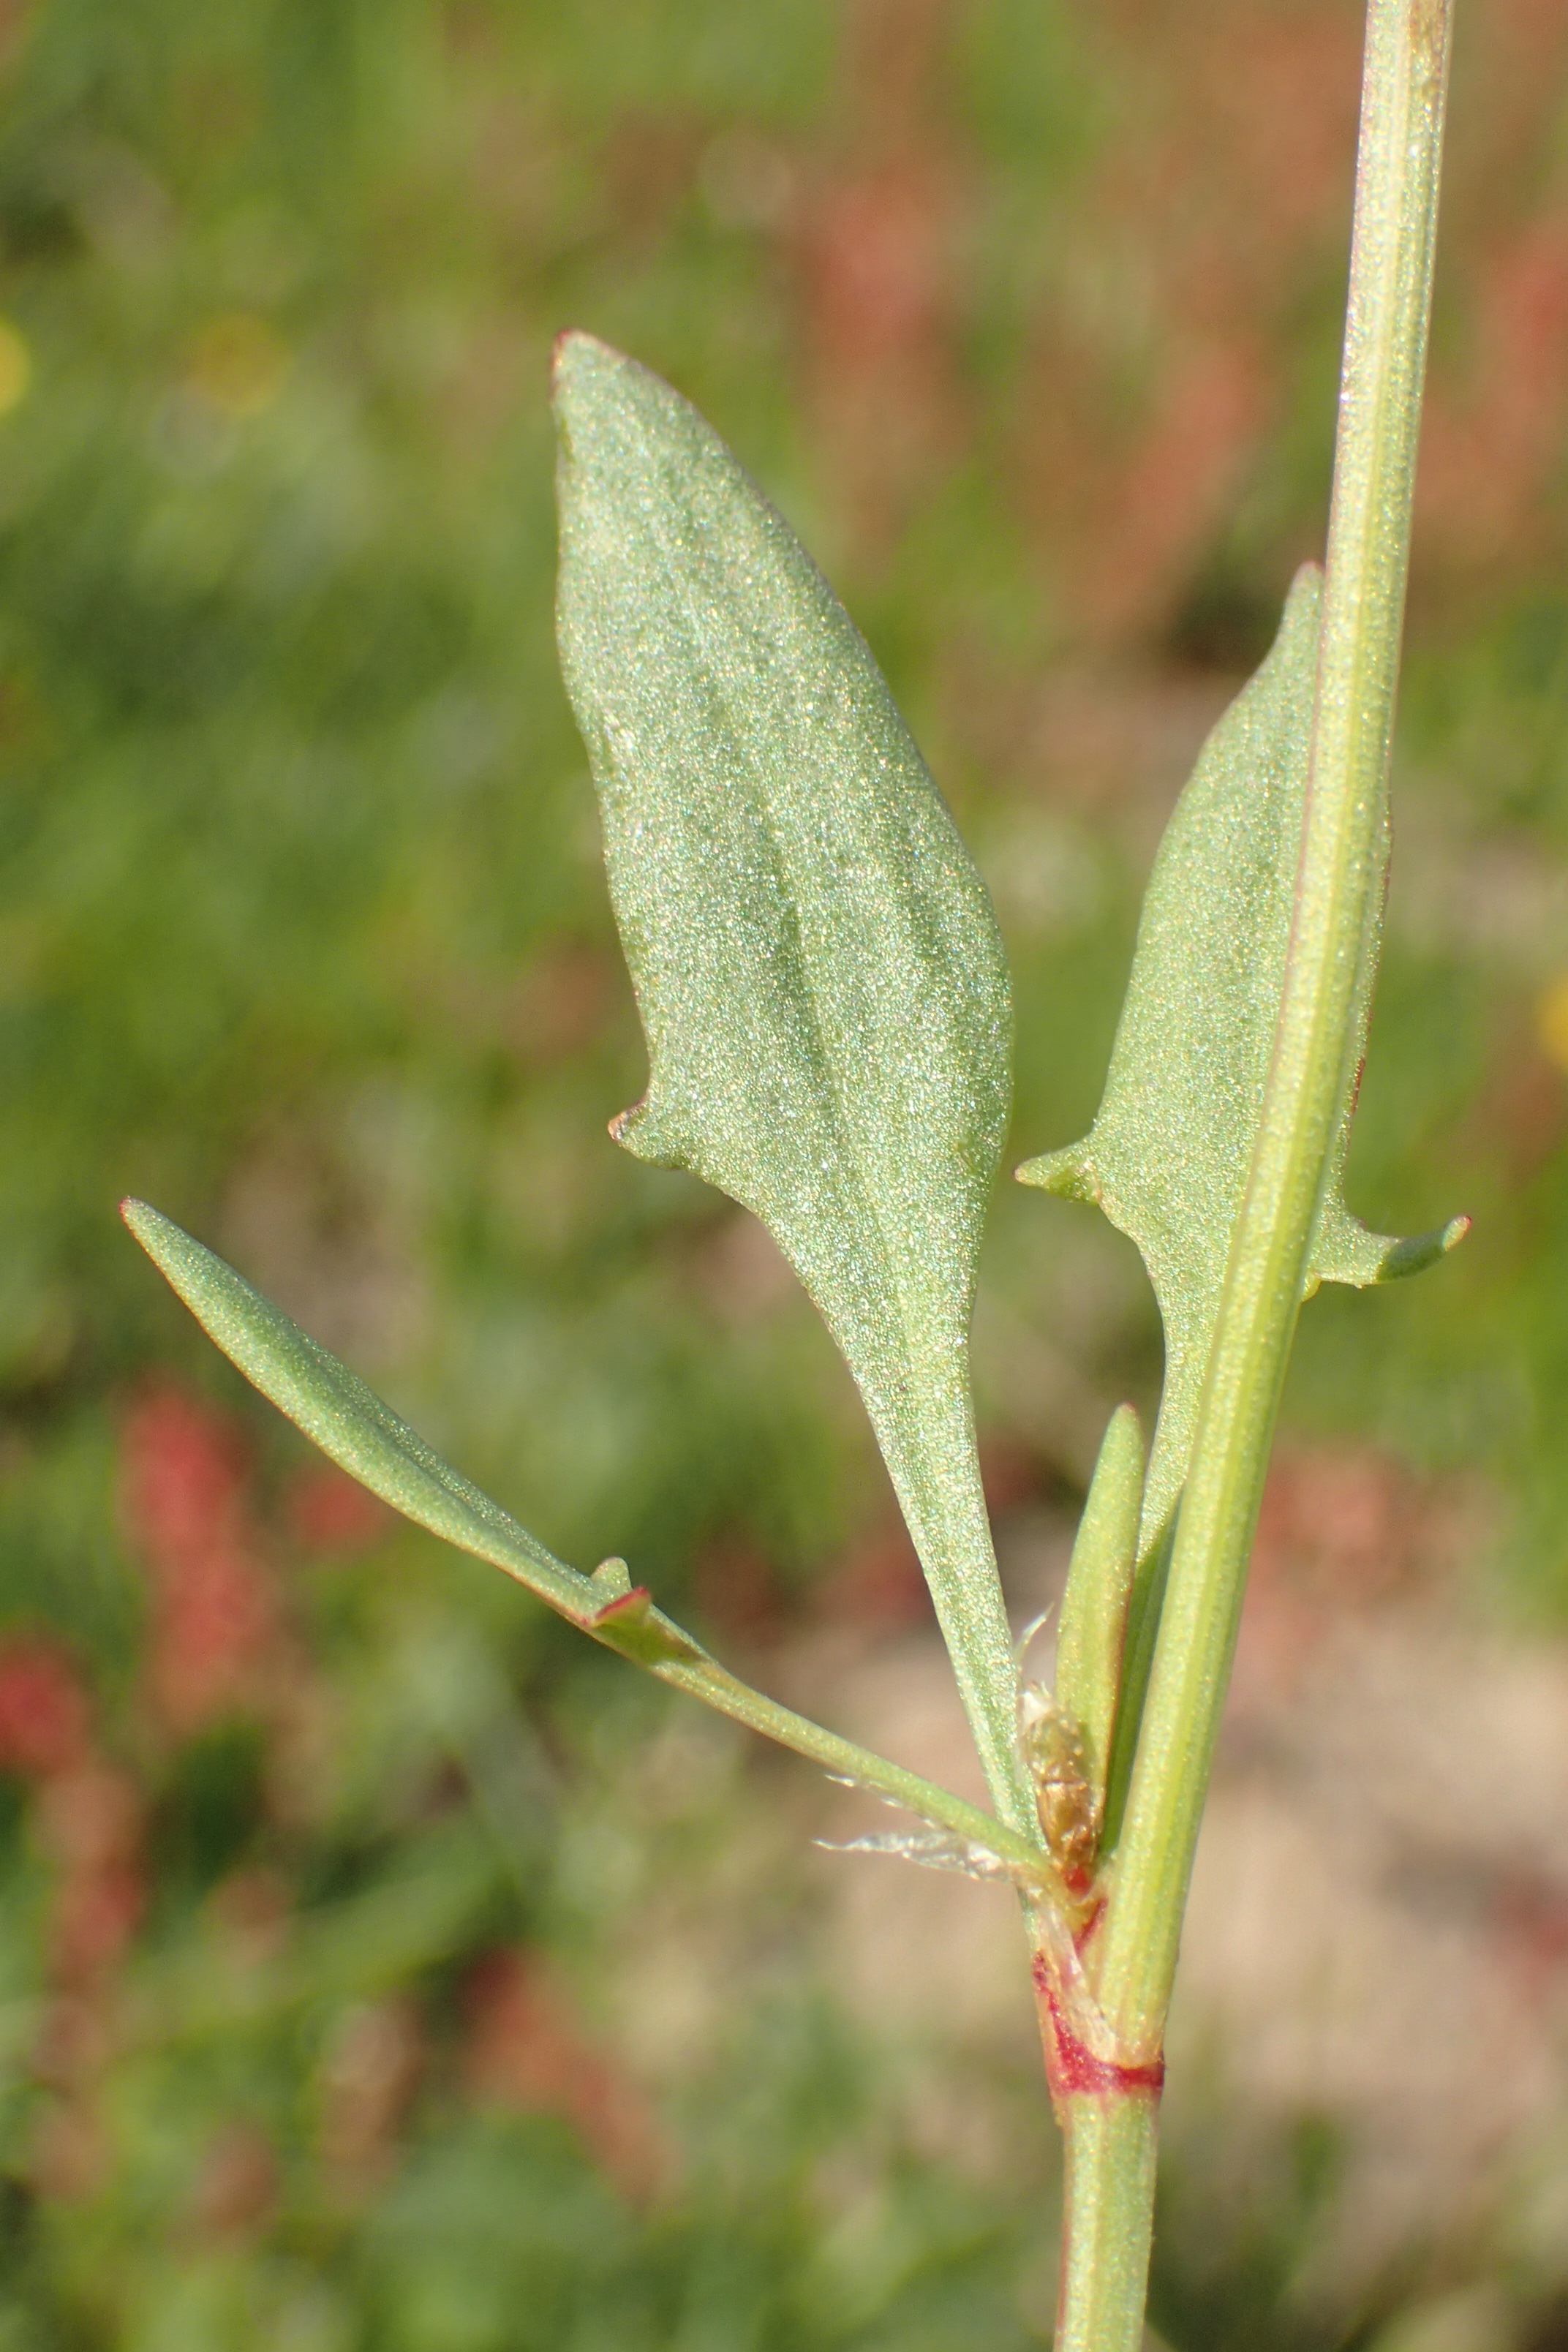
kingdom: Plantae
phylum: Tracheophyta
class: Magnoliopsida
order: Caryophyllales
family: Polygonaceae
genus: Rumex
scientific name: Rumex acetosella
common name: Rødknæ
